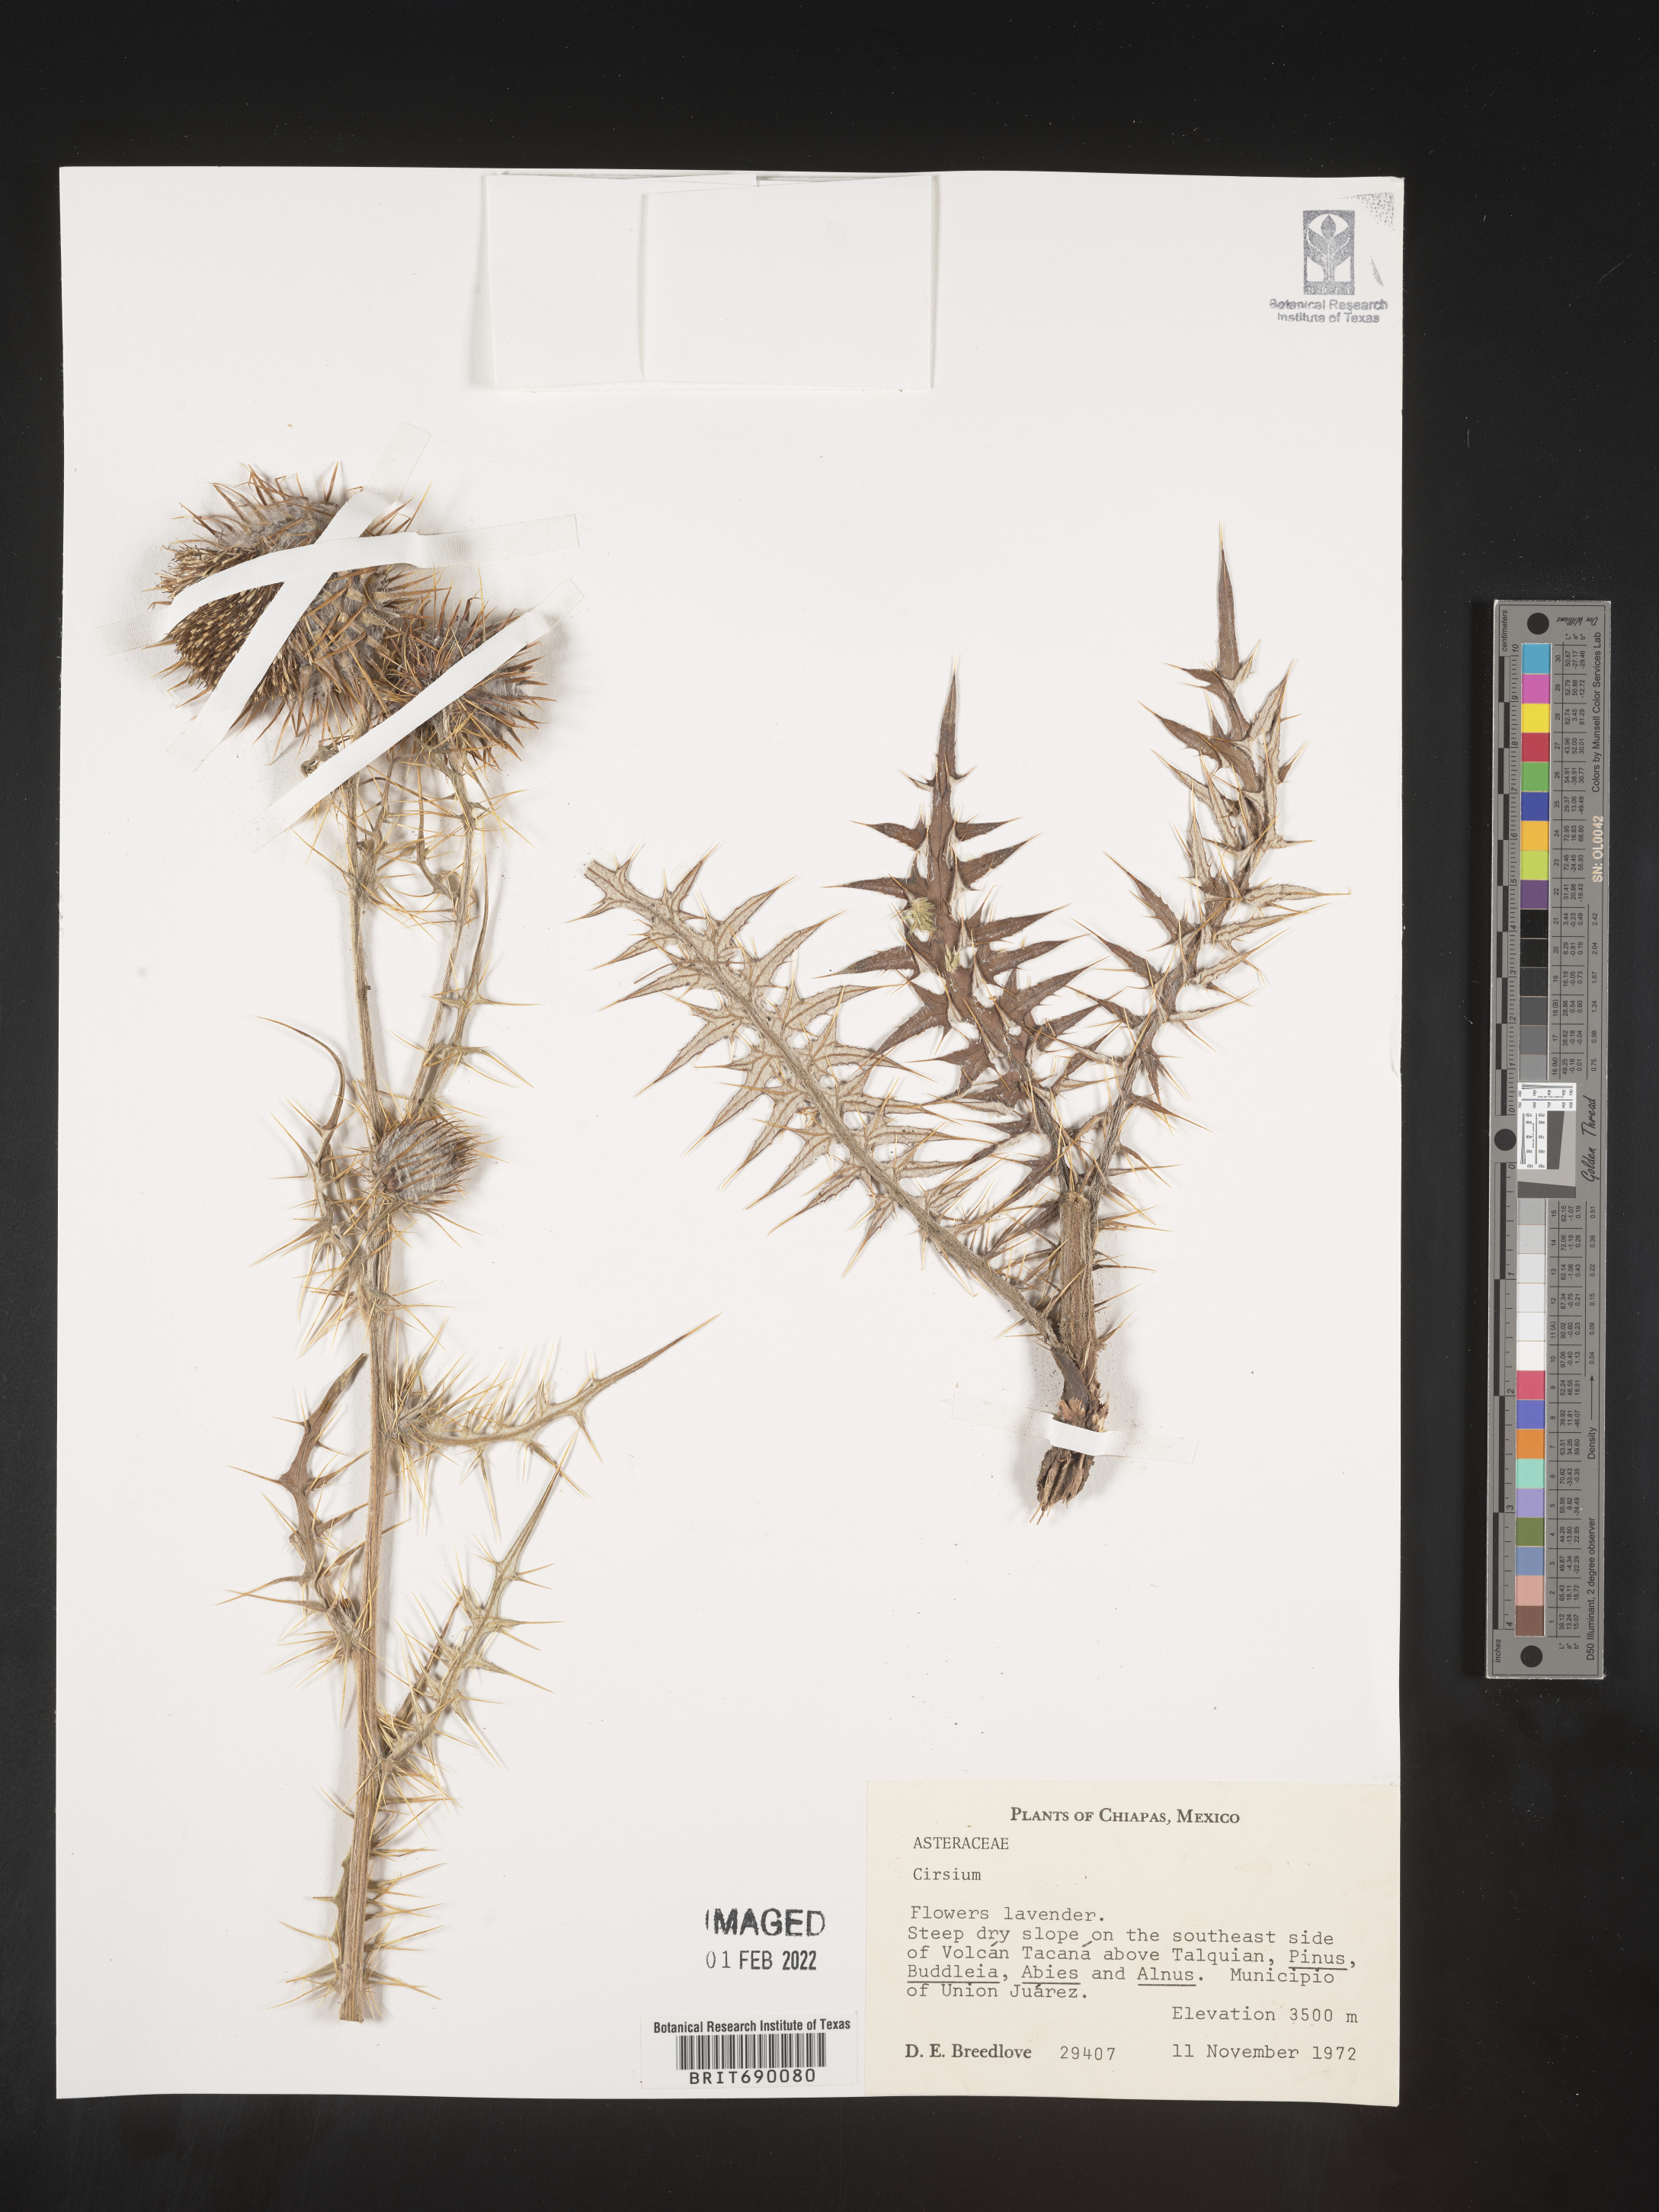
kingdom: Plantae
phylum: Tracheophyta
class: Magnoliopsida
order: Asterales
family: Asteraceae
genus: Cirsium
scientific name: Cirsium
